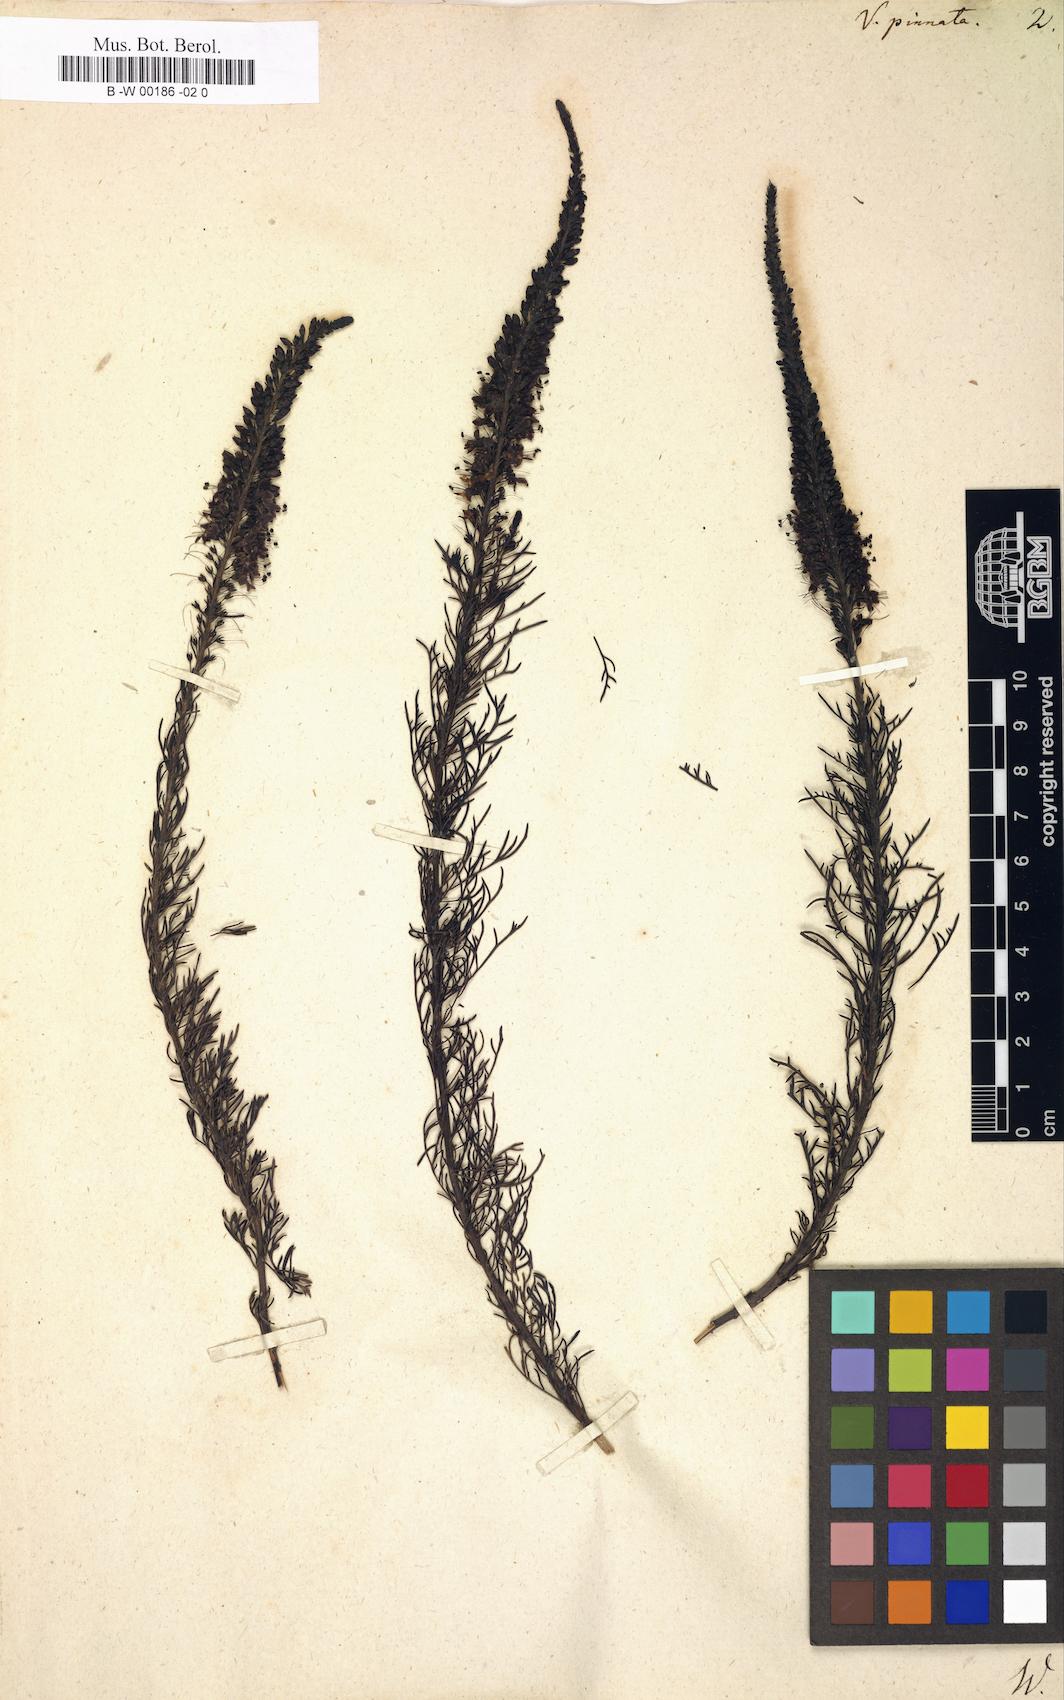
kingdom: Plantae
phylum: Tracheophyta
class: Magnoliopsida
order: Lamiales
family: Plantaginaceae
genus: Veronica
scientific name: Veronica pinnata
